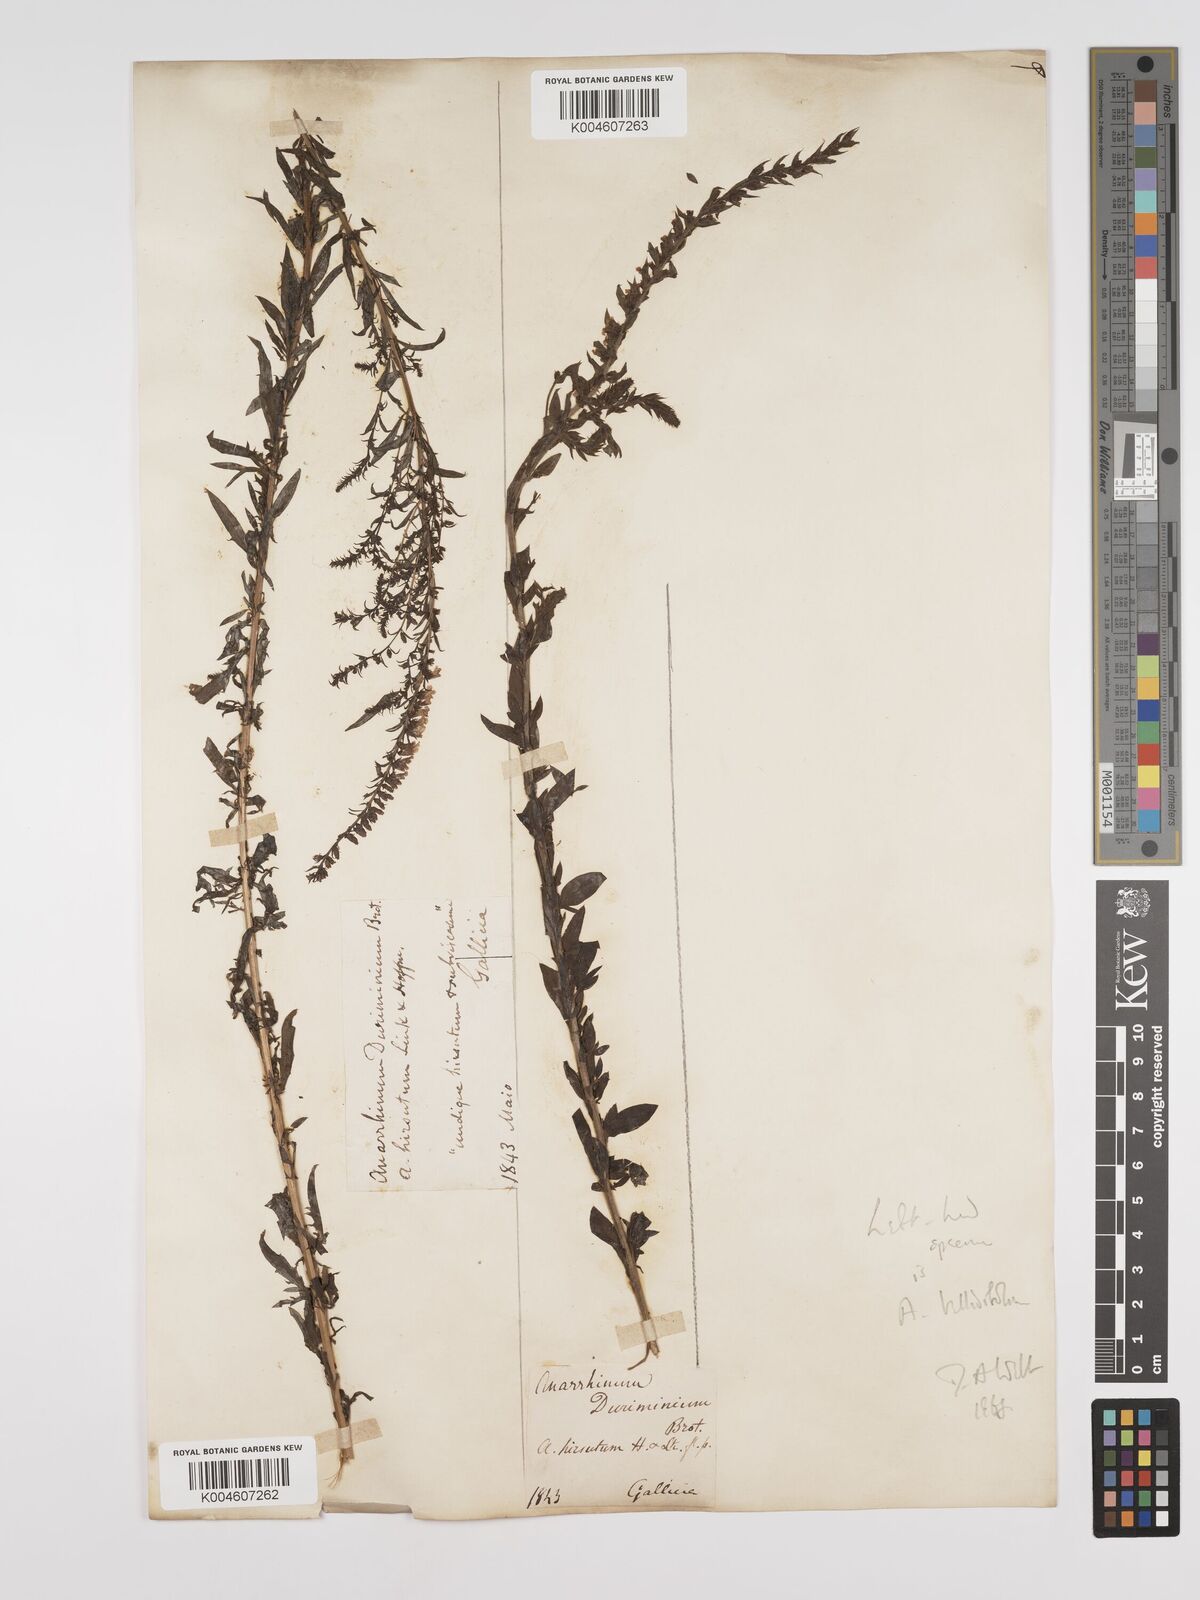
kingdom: Plantae
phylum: Tracheophyta
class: Magnoliopsida
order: Lamiales
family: Plantaginaceae
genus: Anarrhinum
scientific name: Anarrhinum duriminium
